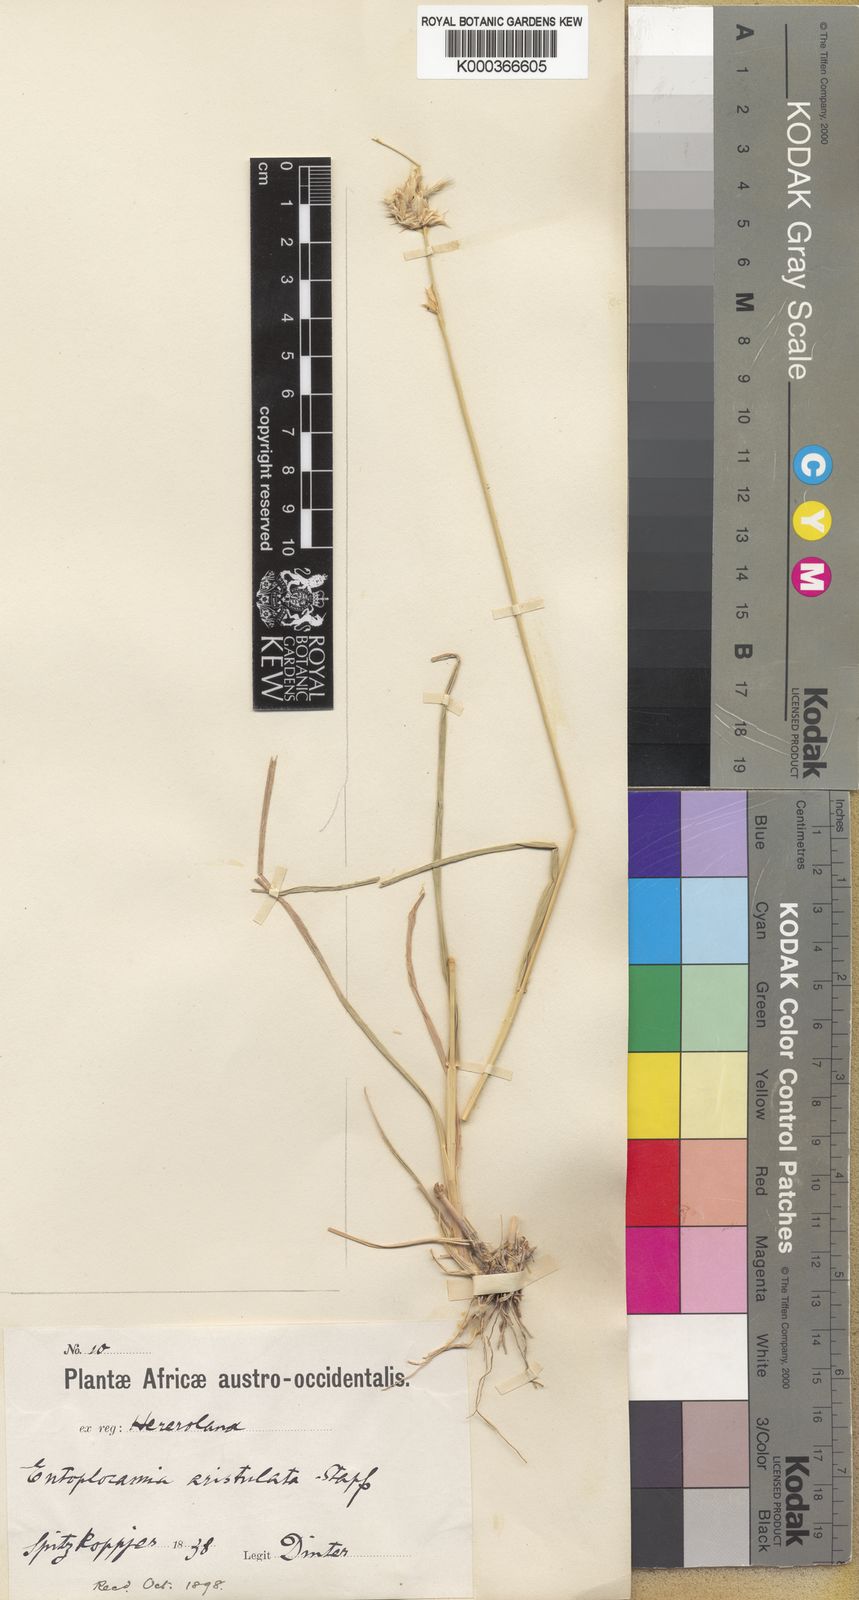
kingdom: Plantae
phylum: Tracheophyta
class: Liliopsida
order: Poales
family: Poaceae
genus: Entoplocamia
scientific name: Entoplocamia aristulata
